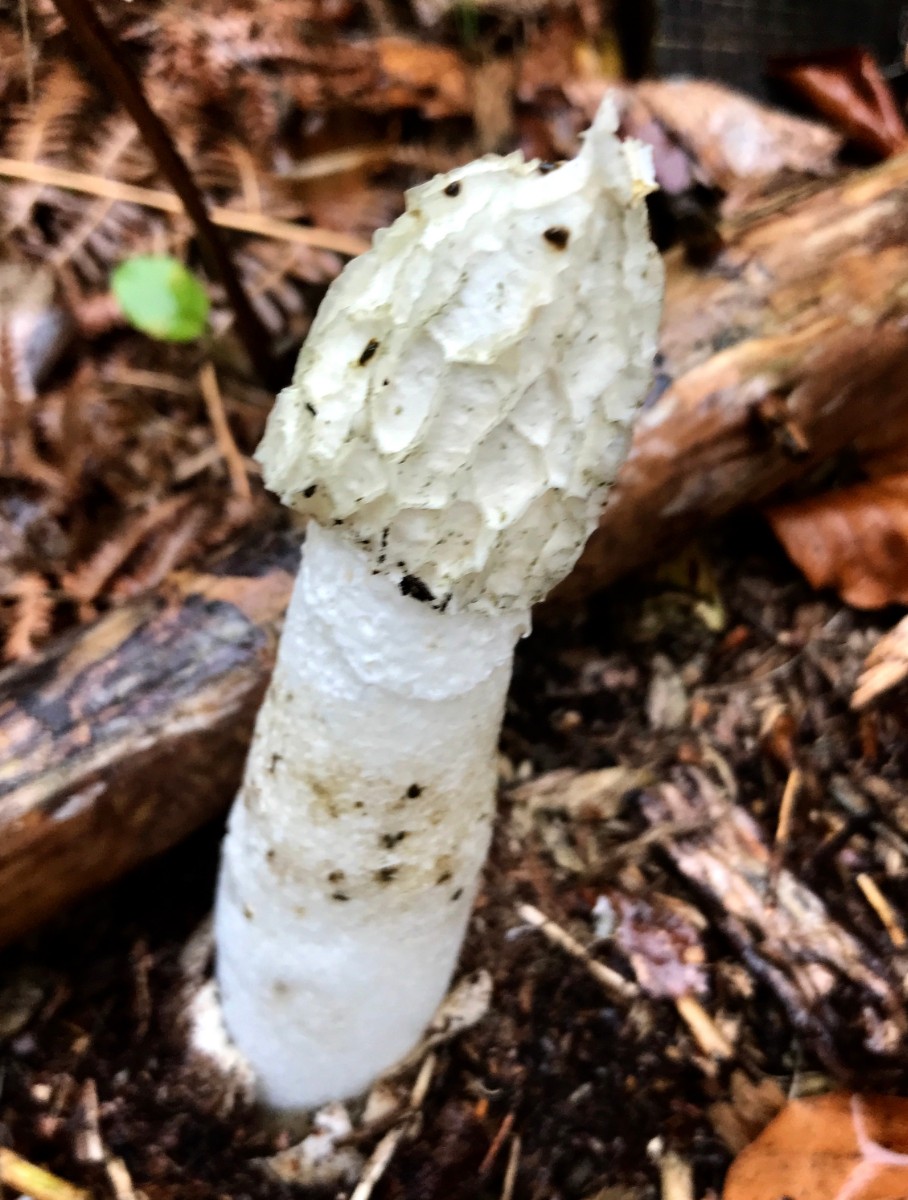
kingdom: Fungi
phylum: Basidiomycota
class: Agaricomycetes
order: Phallales
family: Phallaceae
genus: Phallus
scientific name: Phallus impudicus
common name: almindelig stinksvamp
